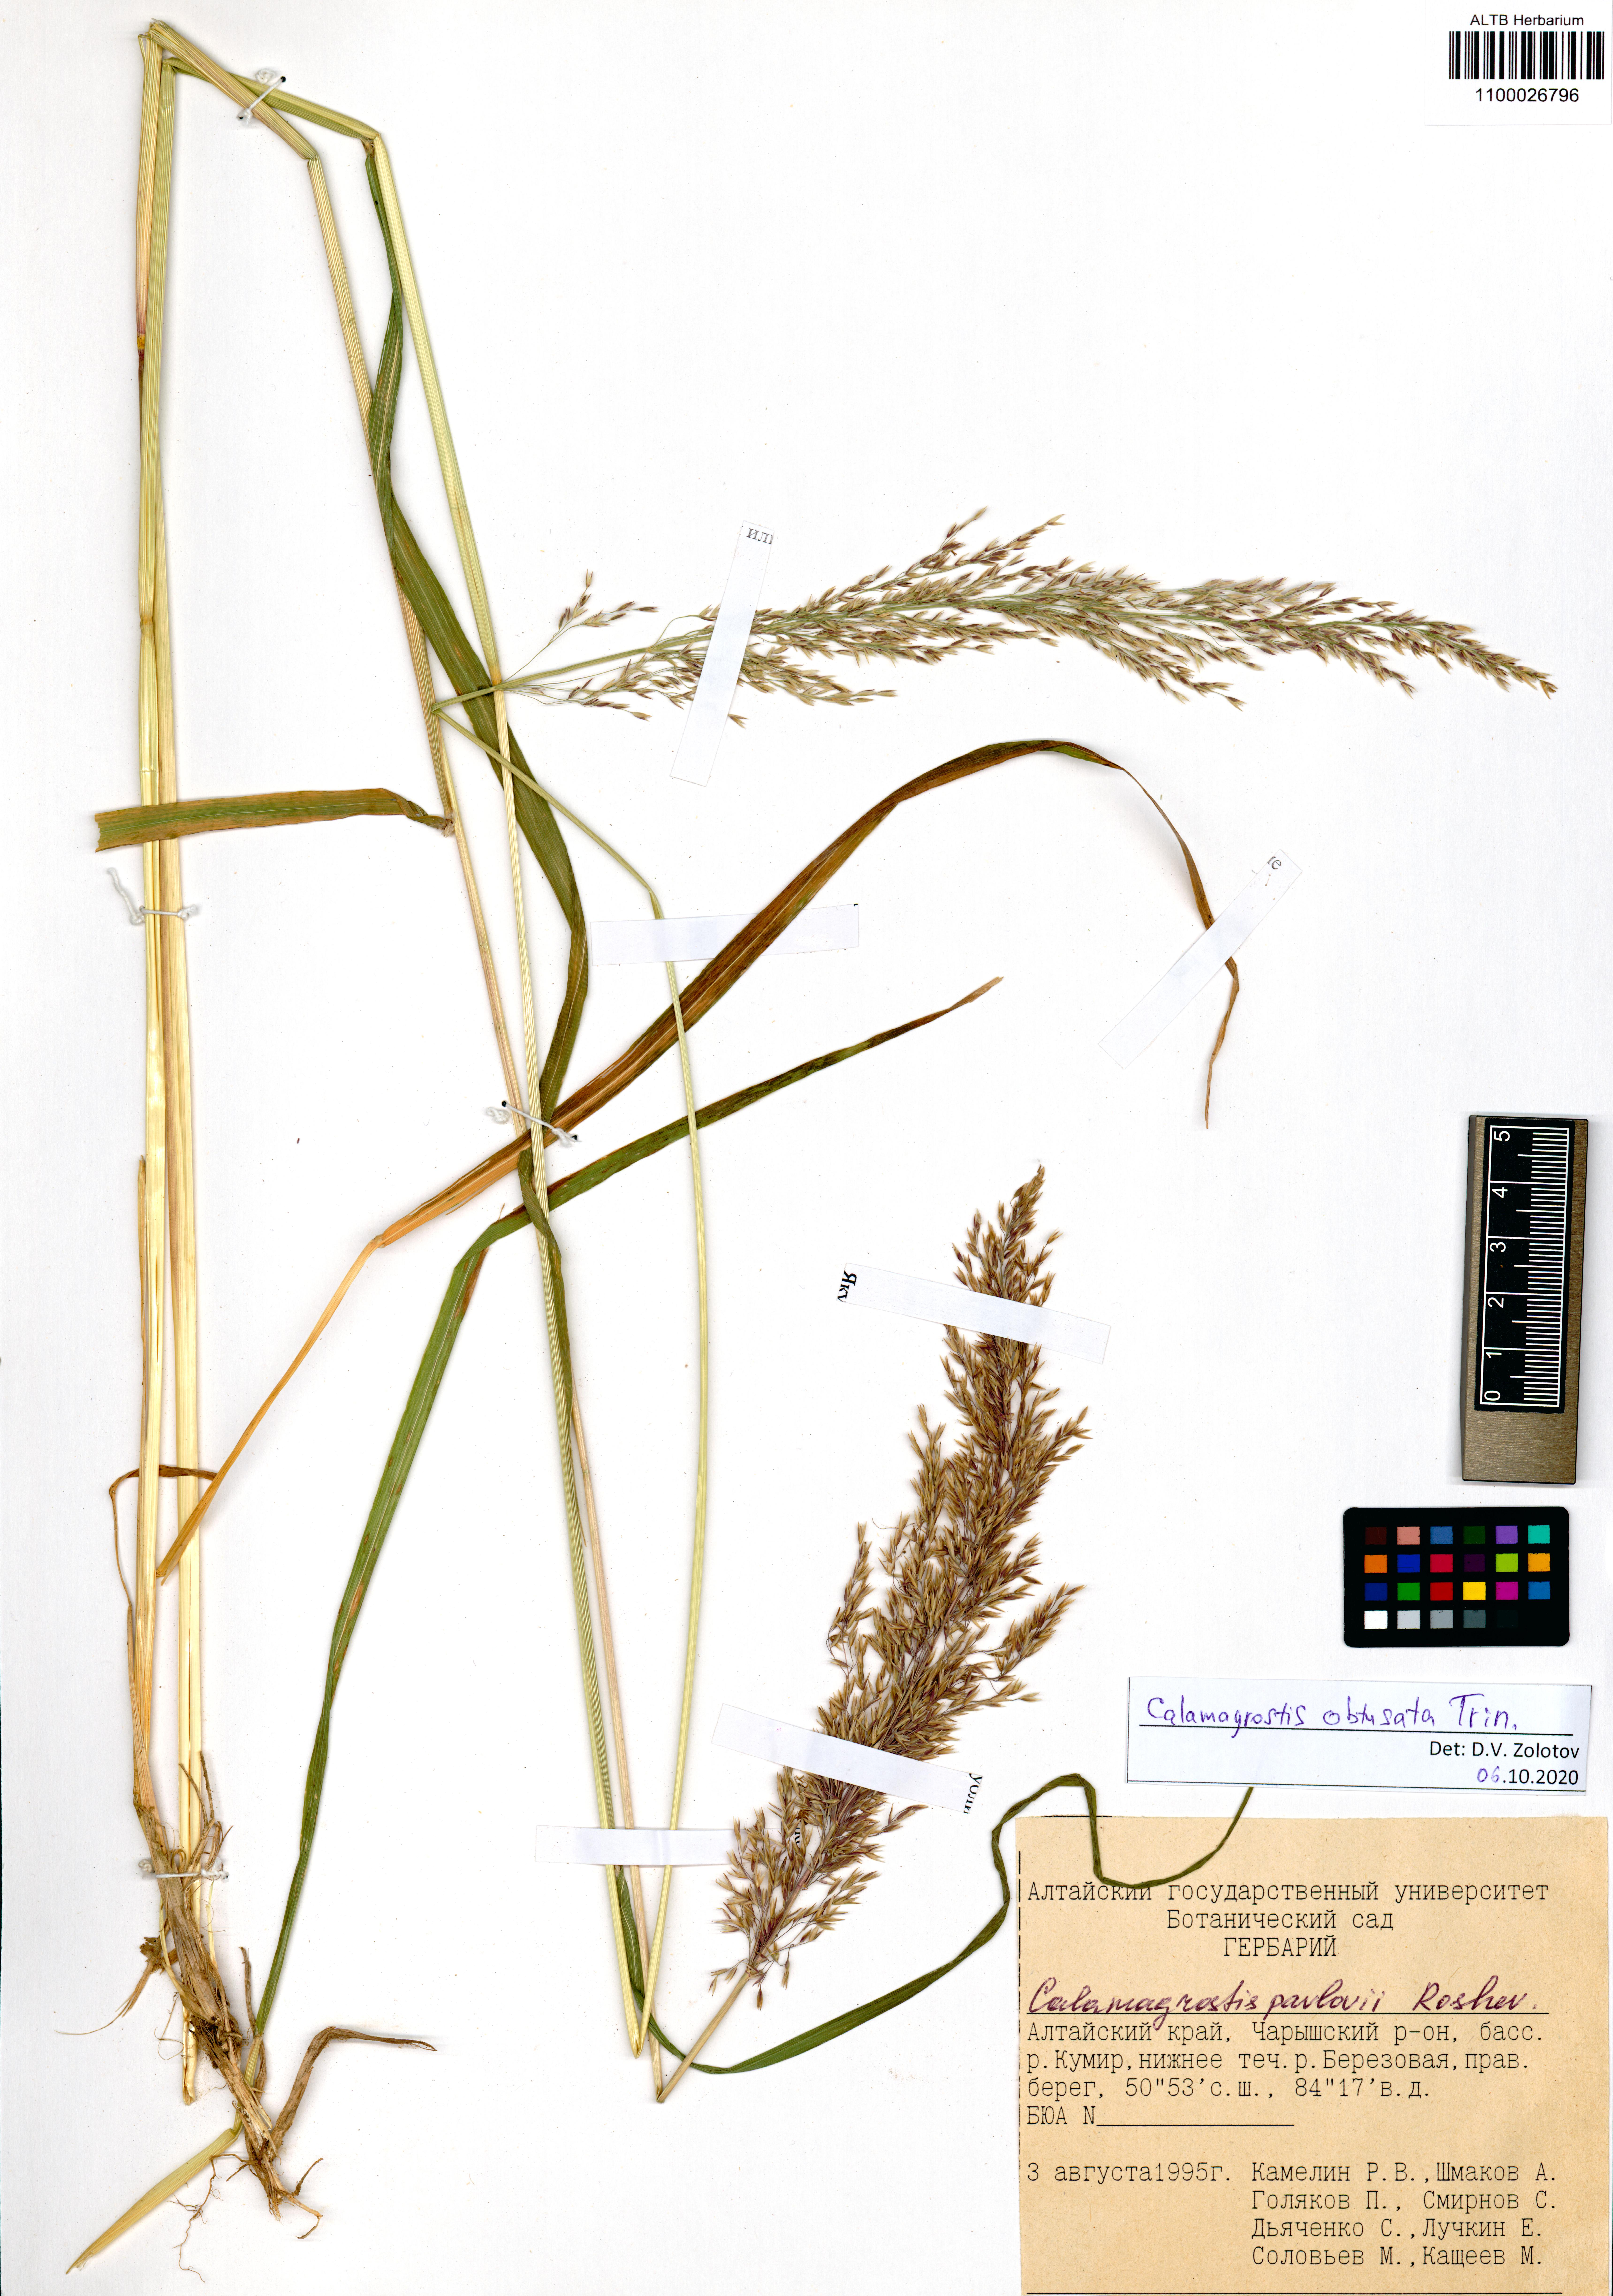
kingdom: Plantae
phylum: Tracheophyta
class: Liliopsida
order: Poales
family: Poaceae
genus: Calamagrostis
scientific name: Calamagrostis obtusata
